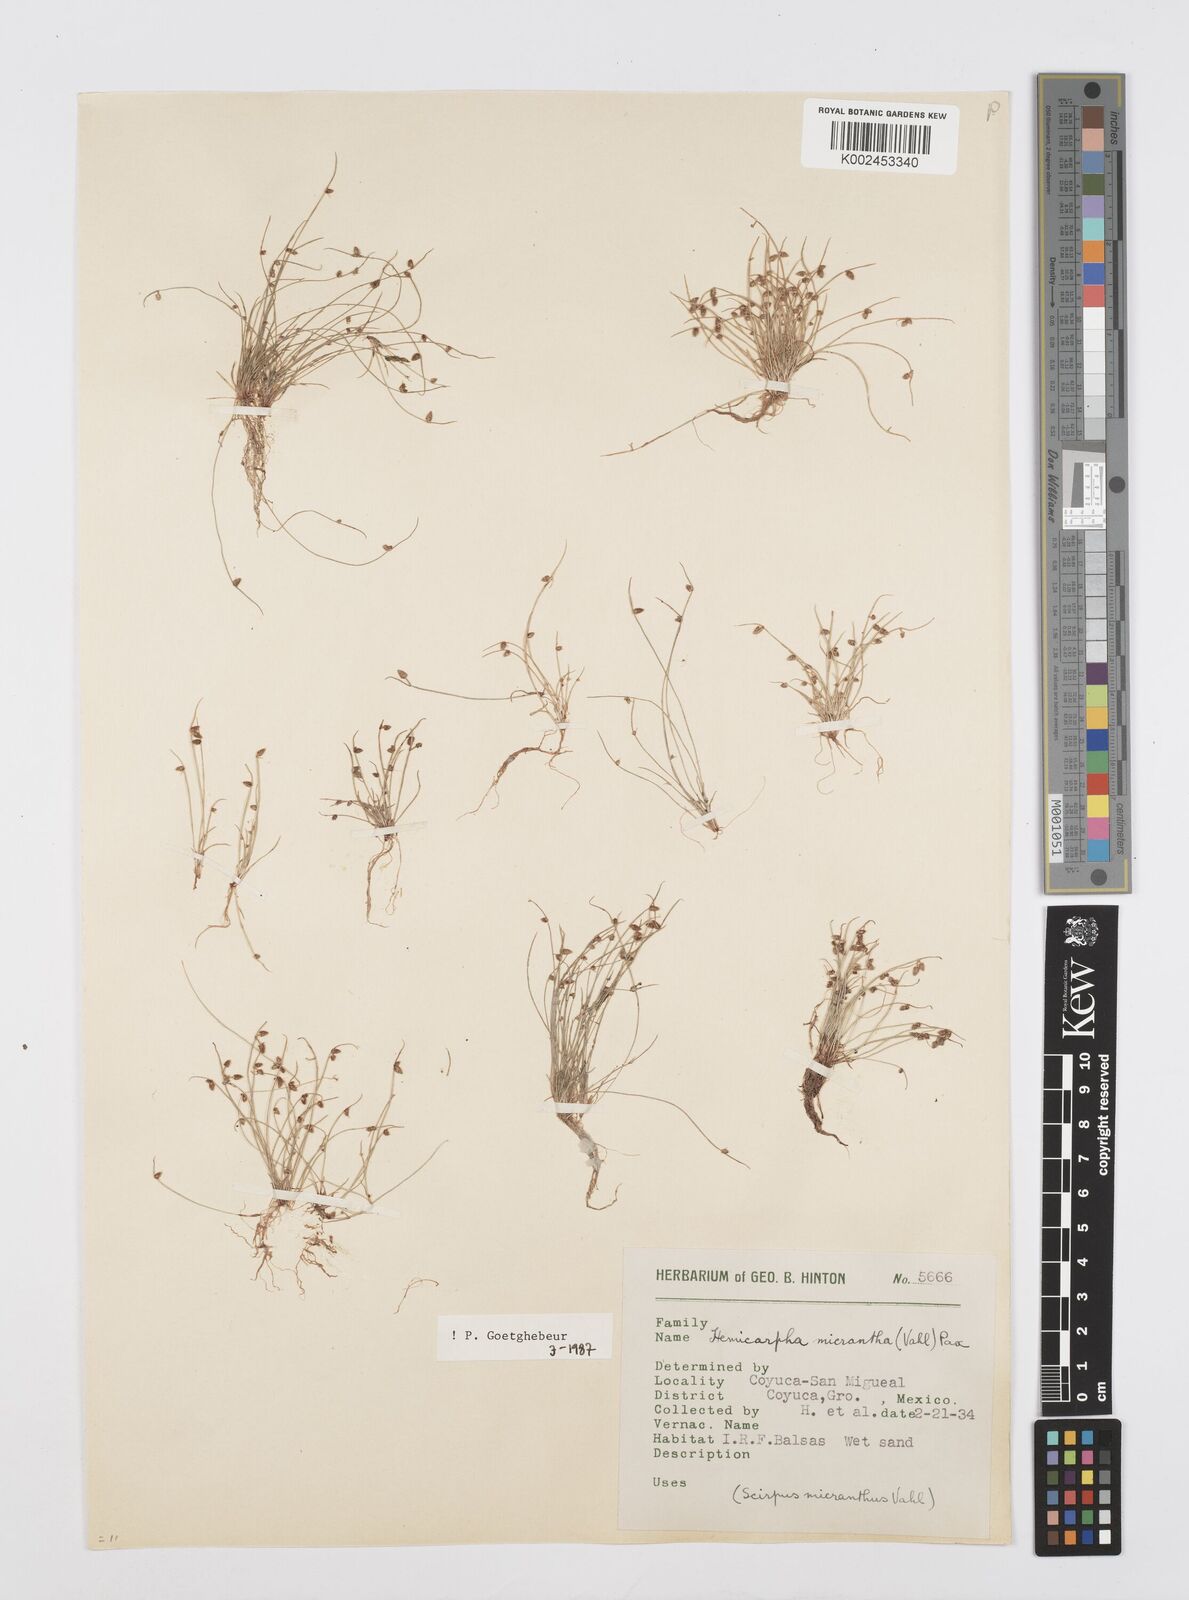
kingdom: Plantae
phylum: Tracheophyta
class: Liliopsida
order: Poales
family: Cyperaceae
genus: Cyperus
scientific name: Cyperus
